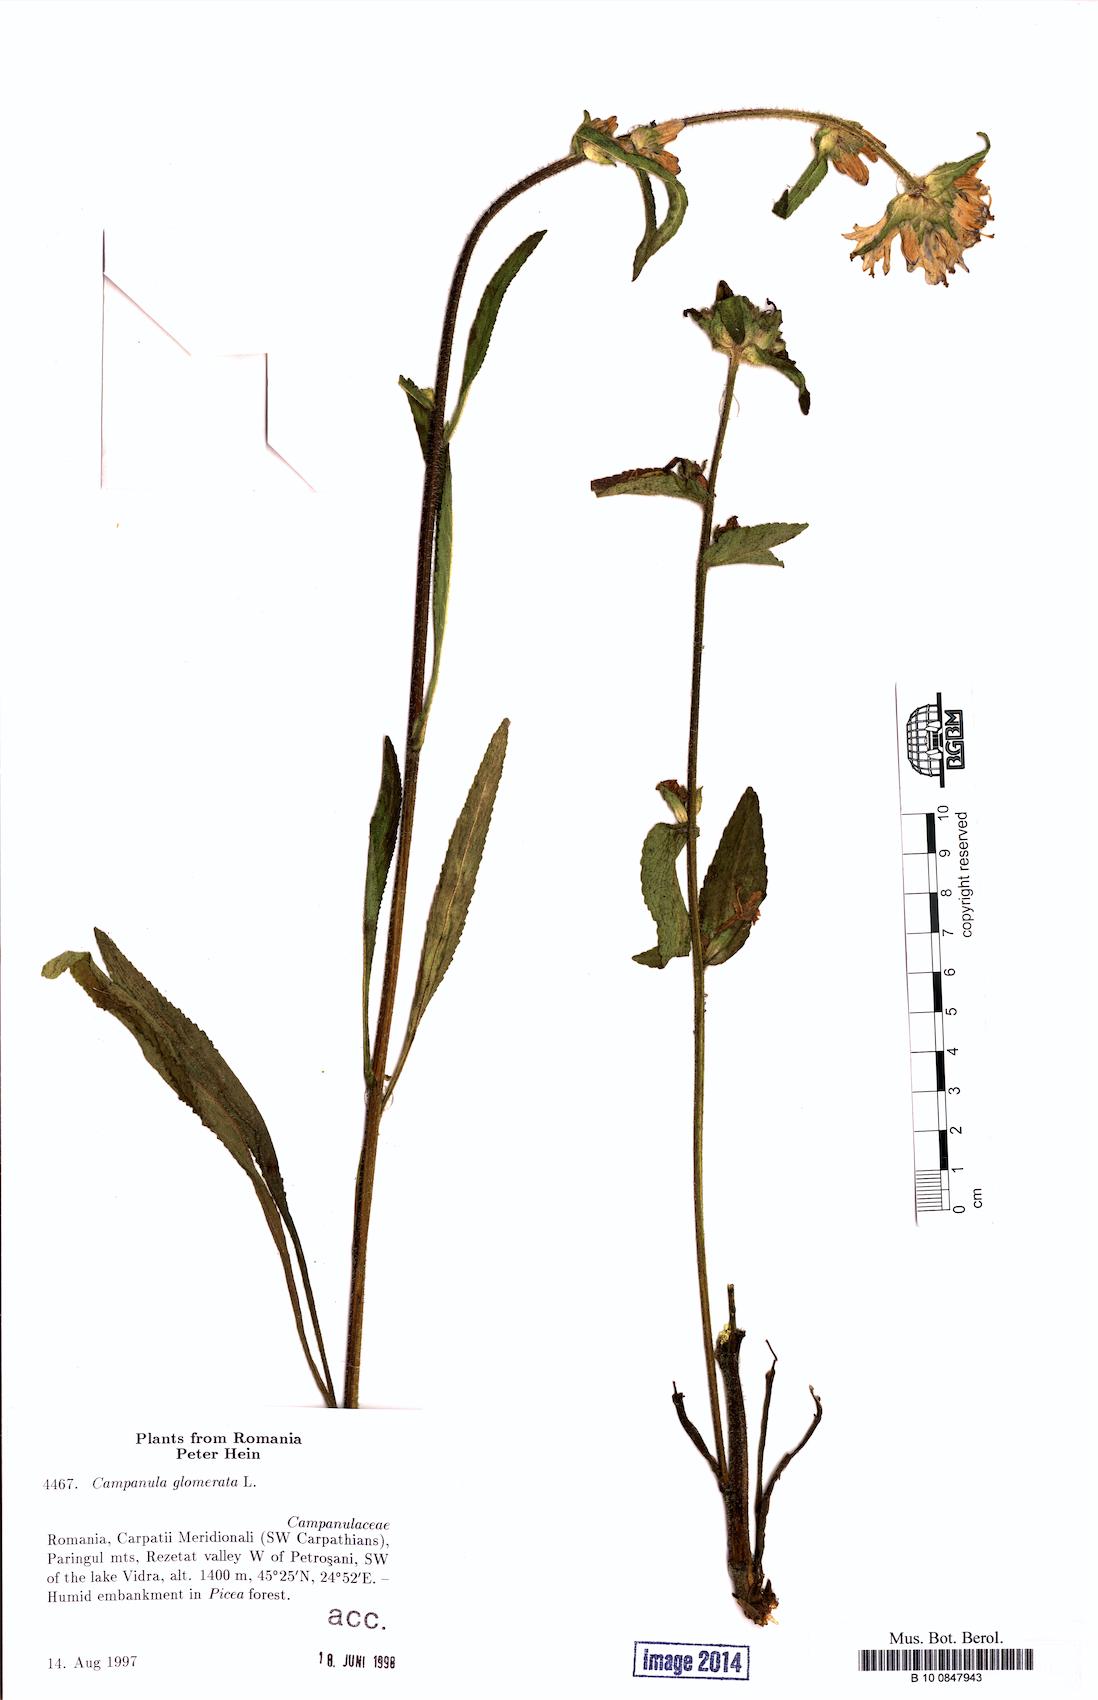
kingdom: Plantae
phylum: Tracheophyta
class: Magnoliopsida
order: Asterales
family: Campanulaceae
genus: Campanula
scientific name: Campanula glomerata
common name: Clustered bellflower
